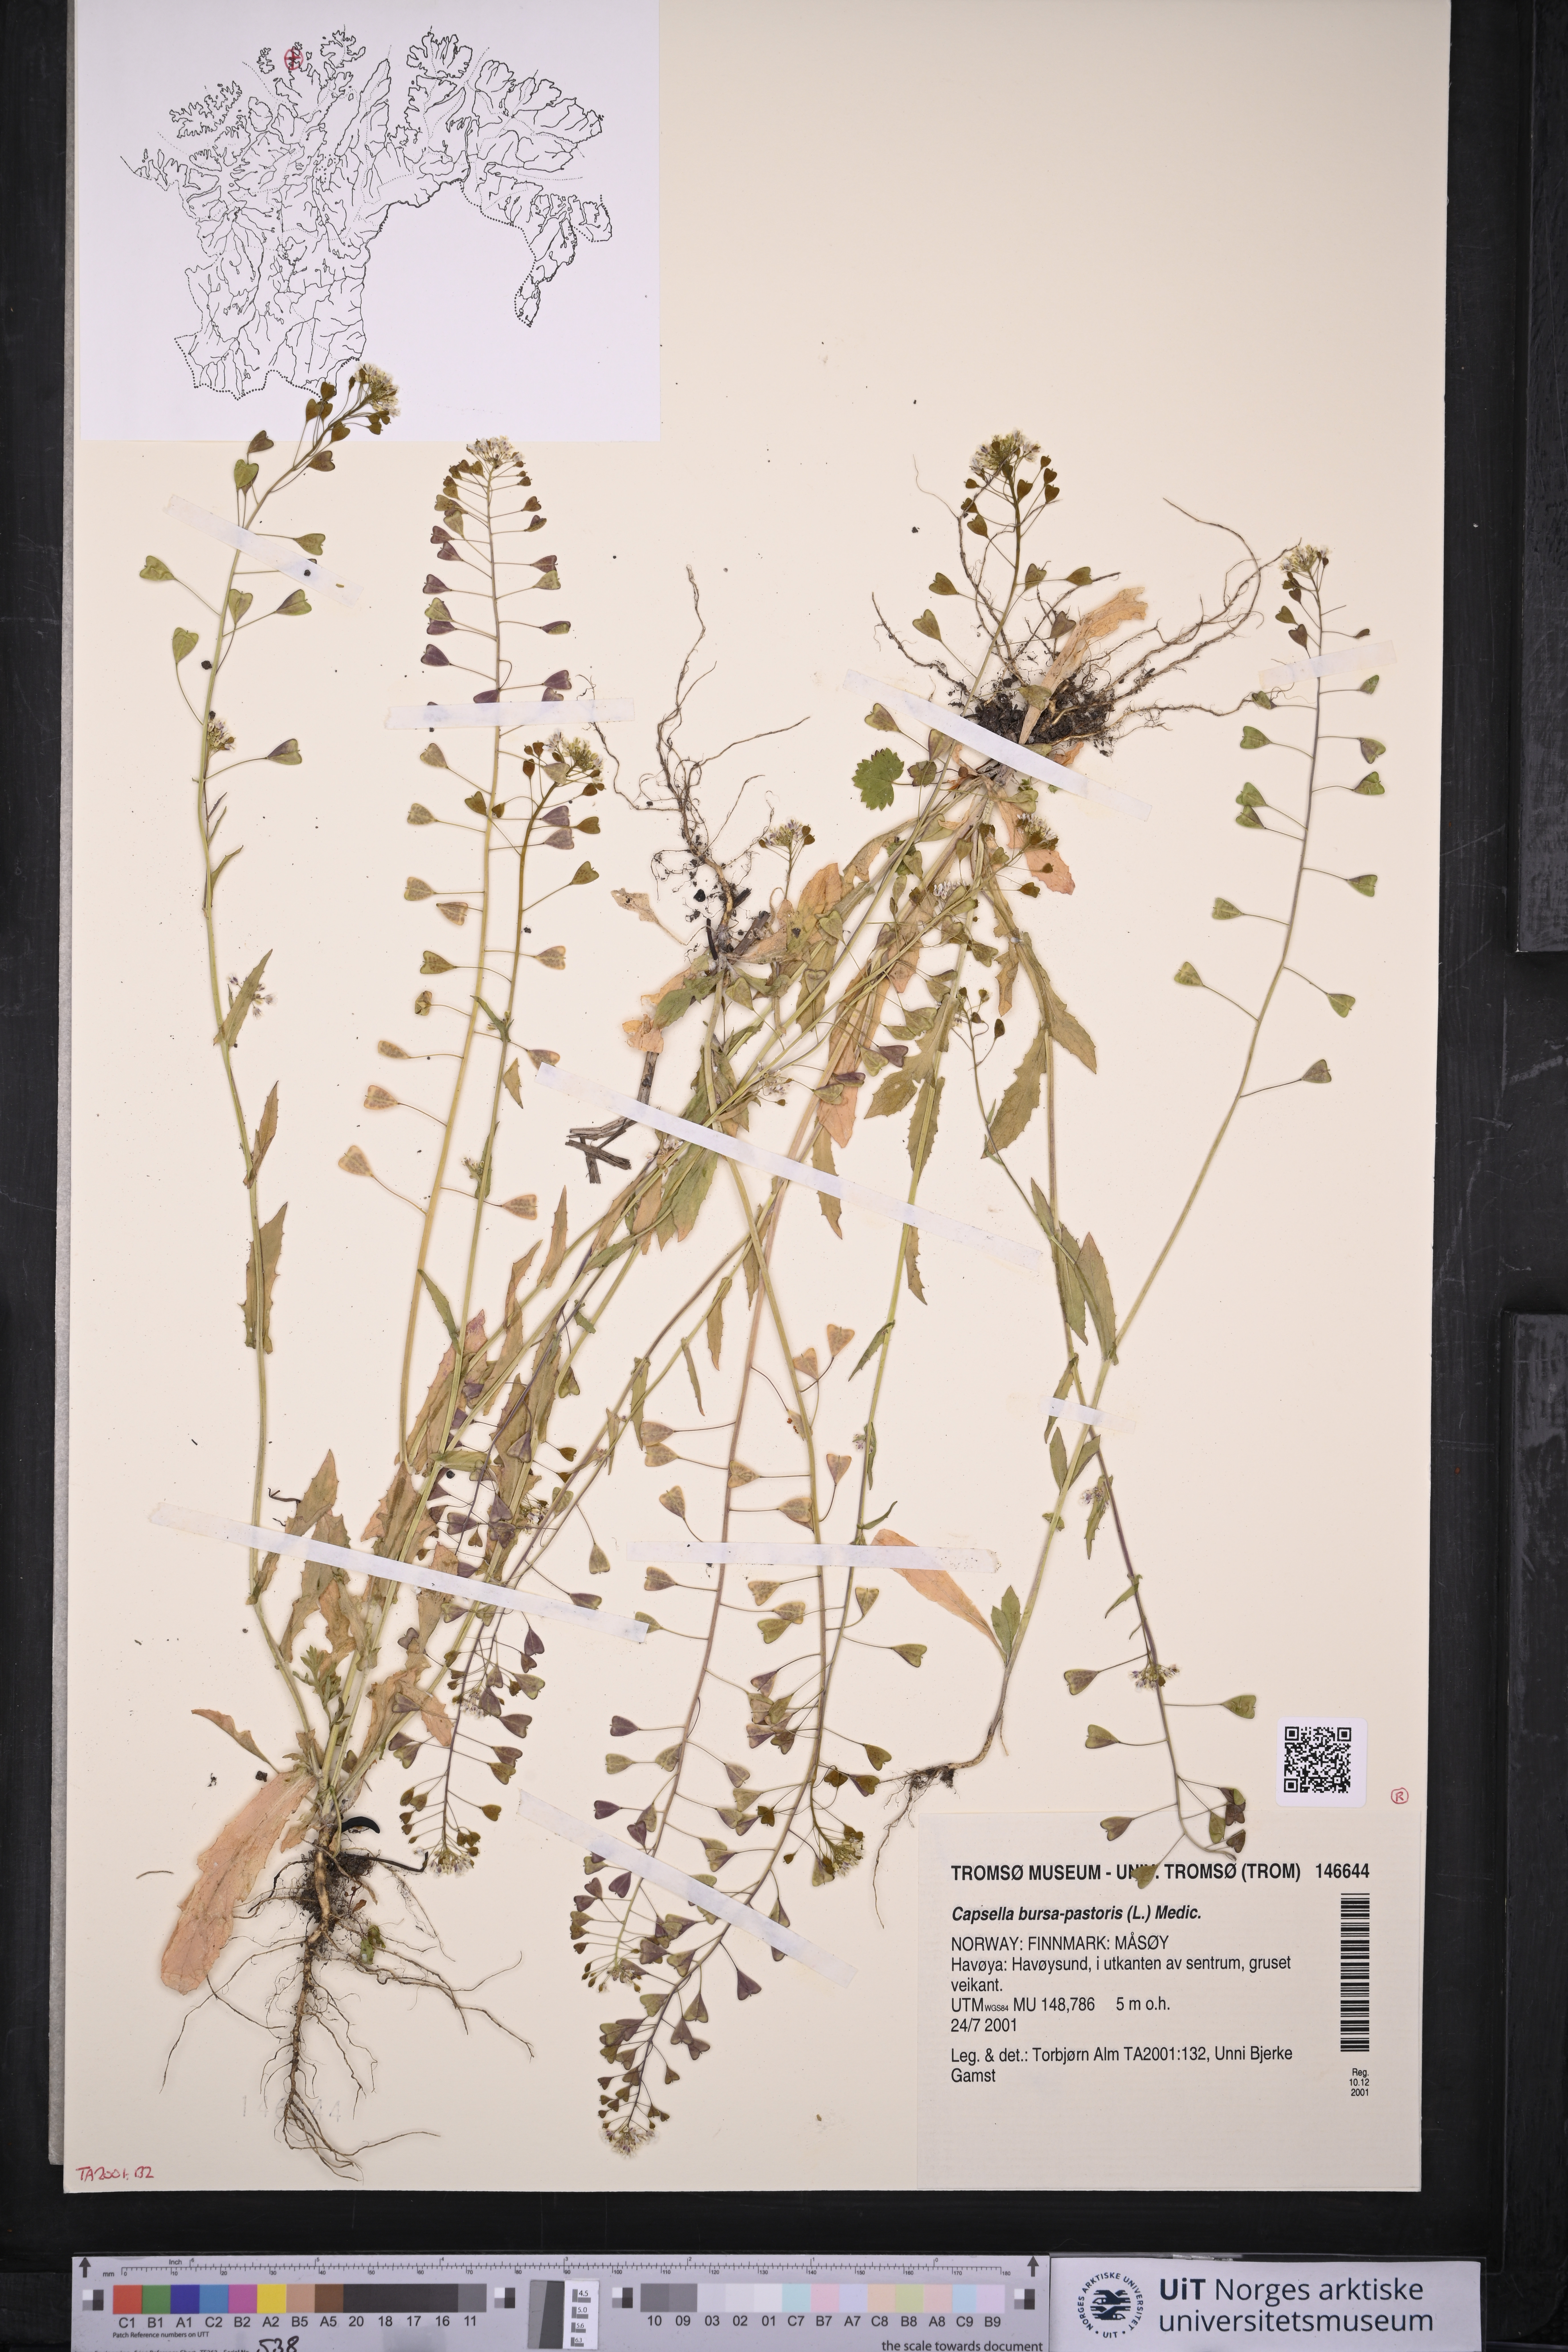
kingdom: Plantae
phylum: Tracheophyta
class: Magnoliopsida
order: Brassicales
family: Brassicaceae
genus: Capsella
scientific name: Capsella bursa-pastoris
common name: Shepherd's purse
